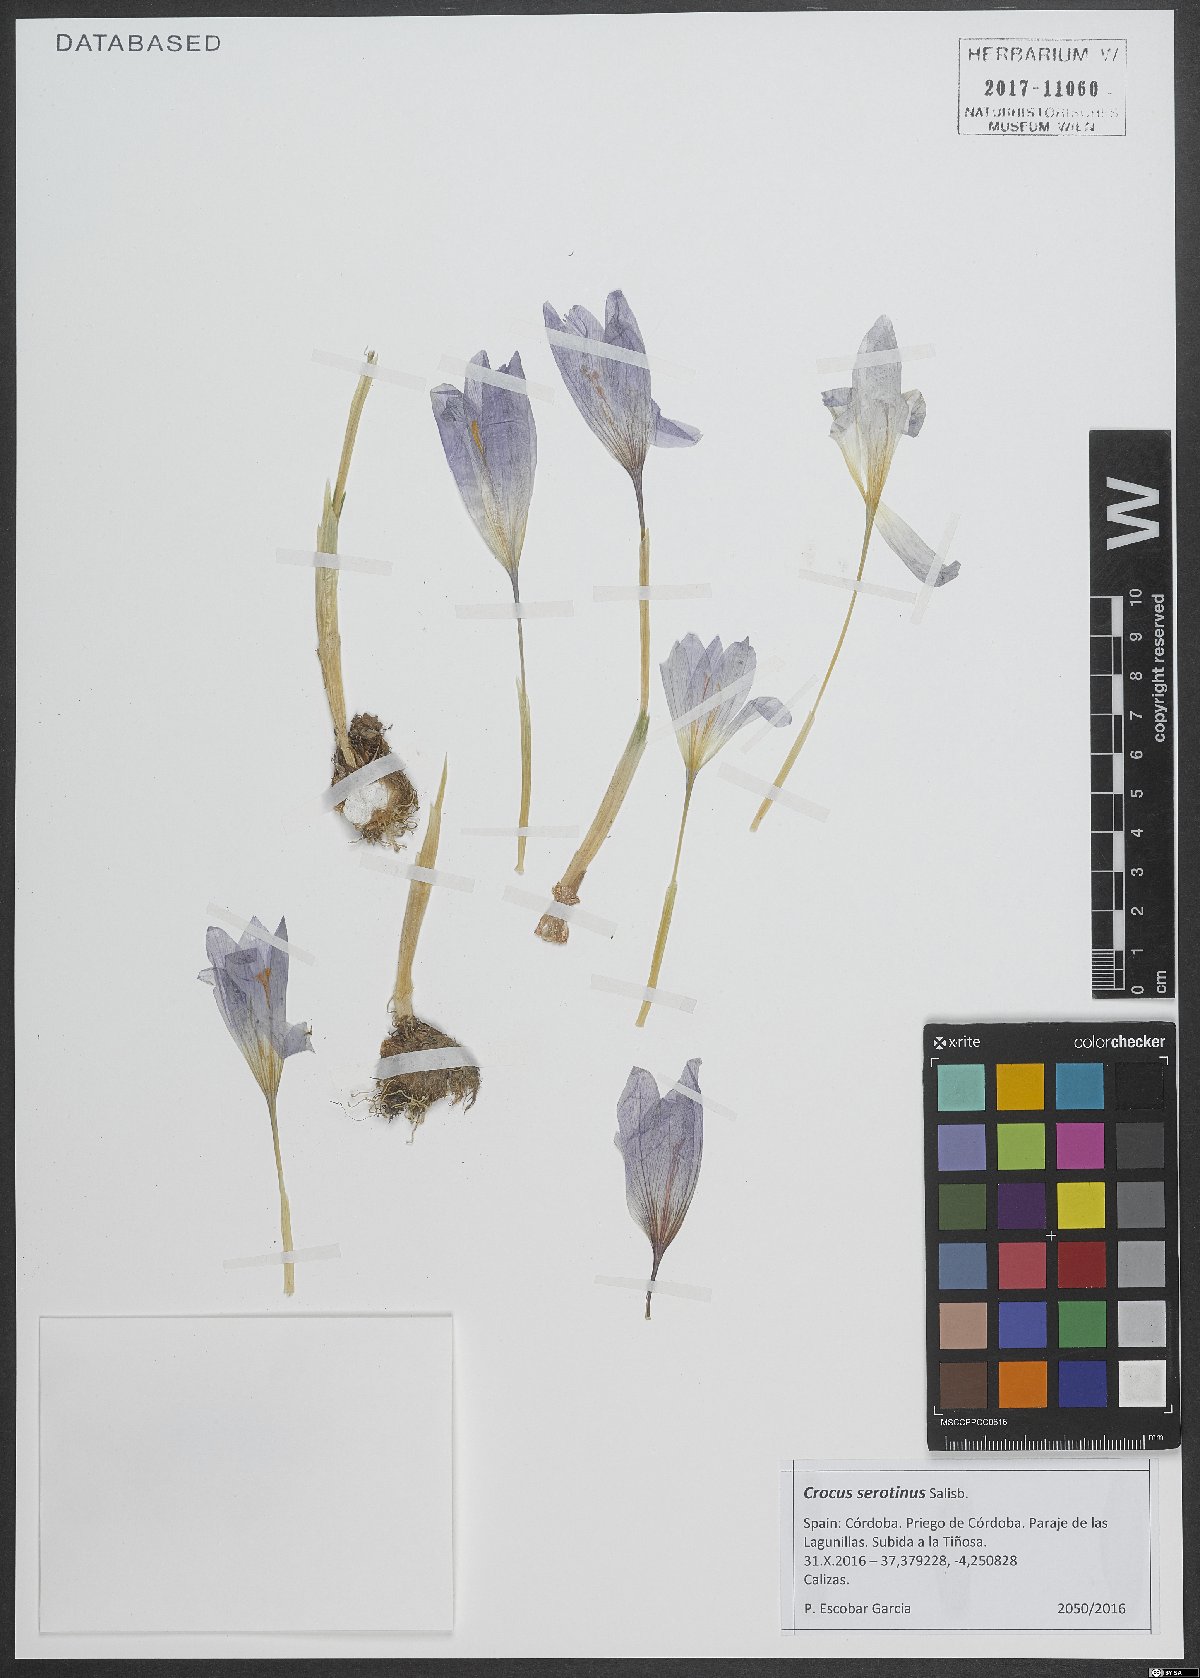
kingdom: Plantae
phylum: Tracheophyta
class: Liliopsida
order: Asparagales
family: Iridaceae
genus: Crocus
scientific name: Crocus autumnalis
